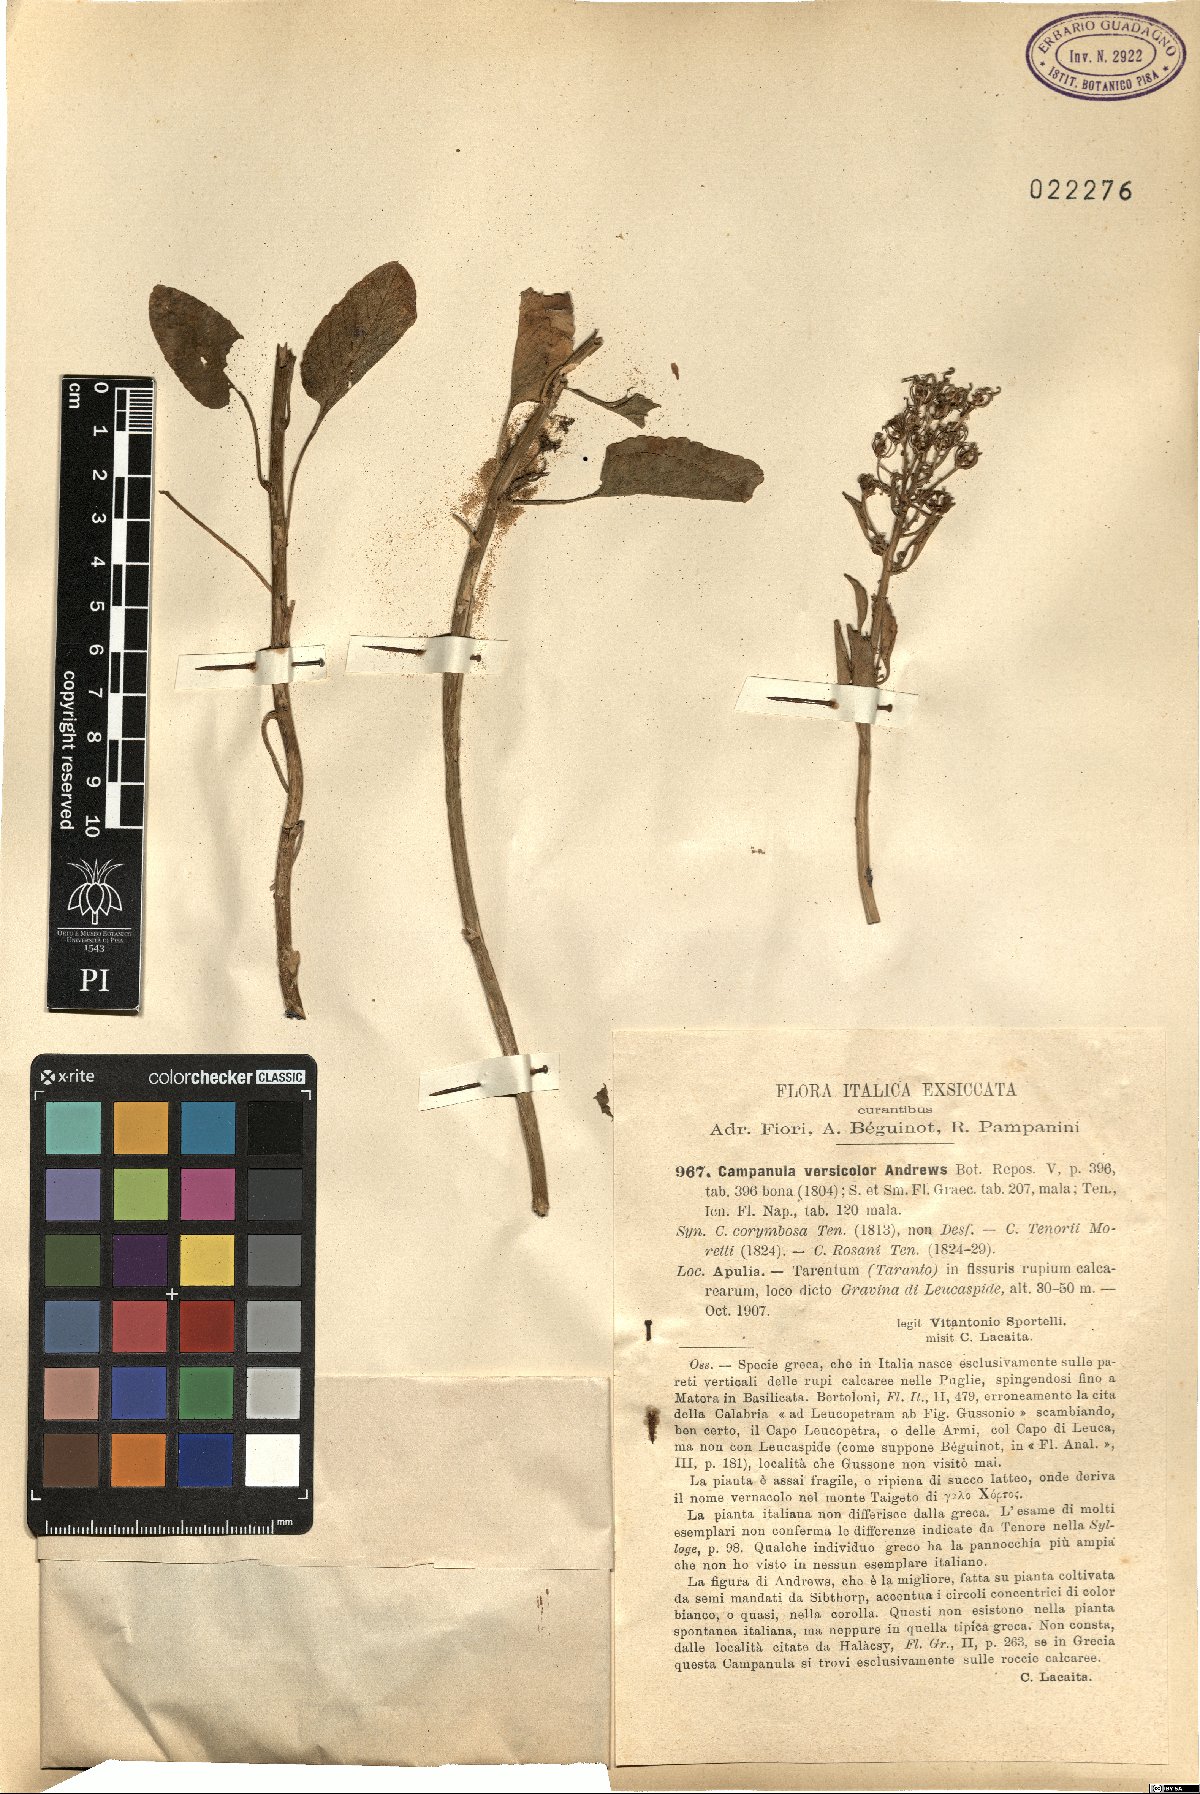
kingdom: Plantae
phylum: Tracheophyta
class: Magnoliopsida
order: Asterales
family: Campanulaceae
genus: Campanula
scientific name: Campanula versicolor
